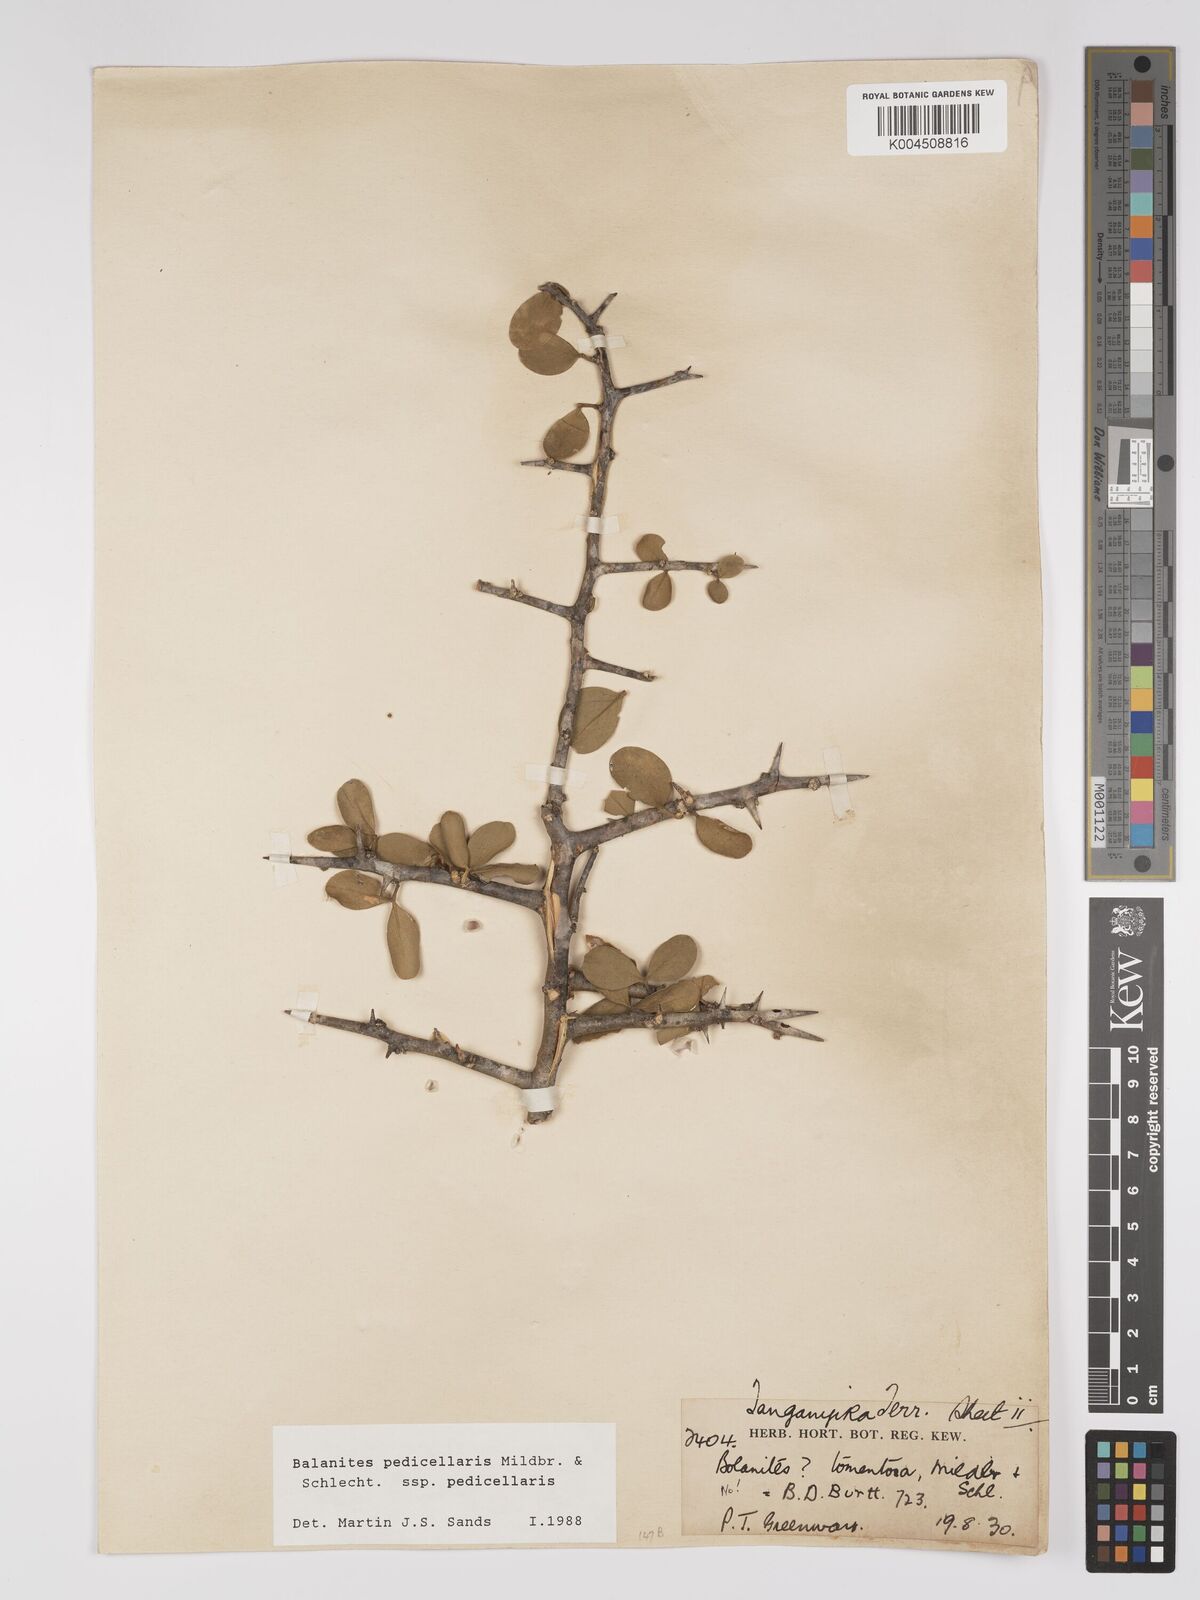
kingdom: Plantae
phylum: Tracheophyta
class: Magnoliopsida
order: Zygophyllales
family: Zygophyllaceae
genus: Balanites
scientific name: Balanites pedicellaris
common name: Small green-thorn
